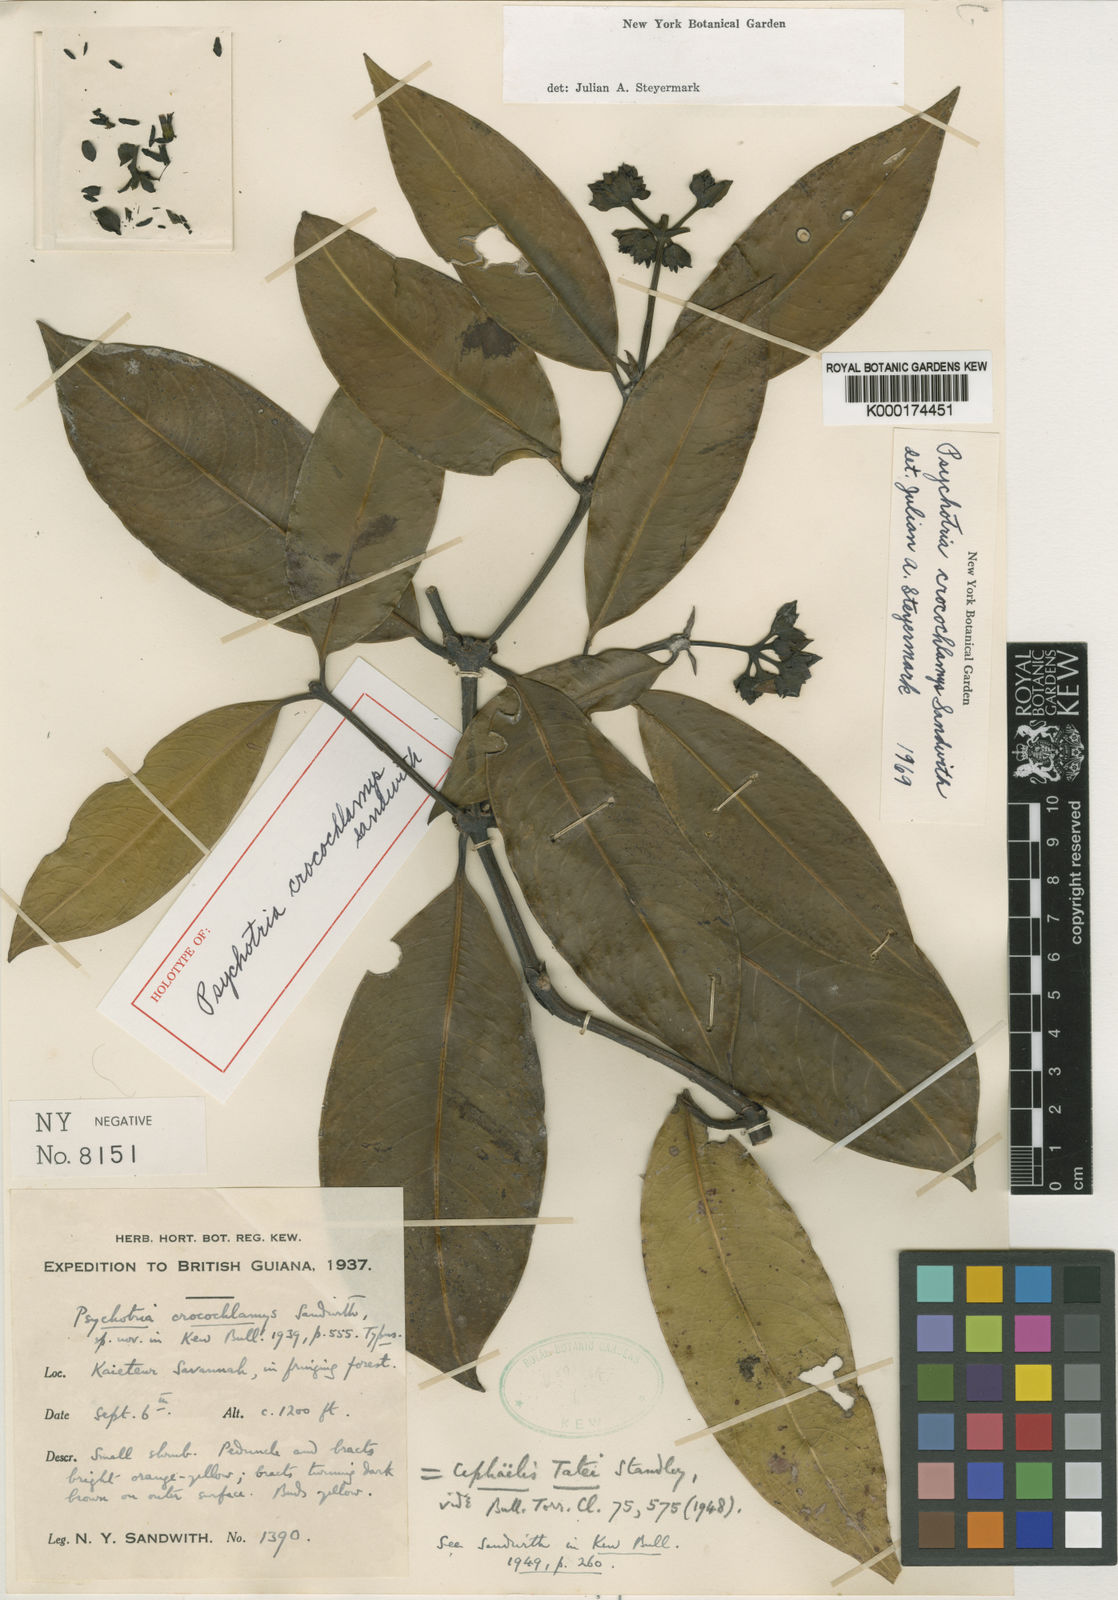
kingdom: Plantae
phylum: Tracheophyta
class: Magnoliopsida
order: Gentianales
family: Rubiaceae
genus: Palicourea
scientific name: Palicourea crocochlamys
